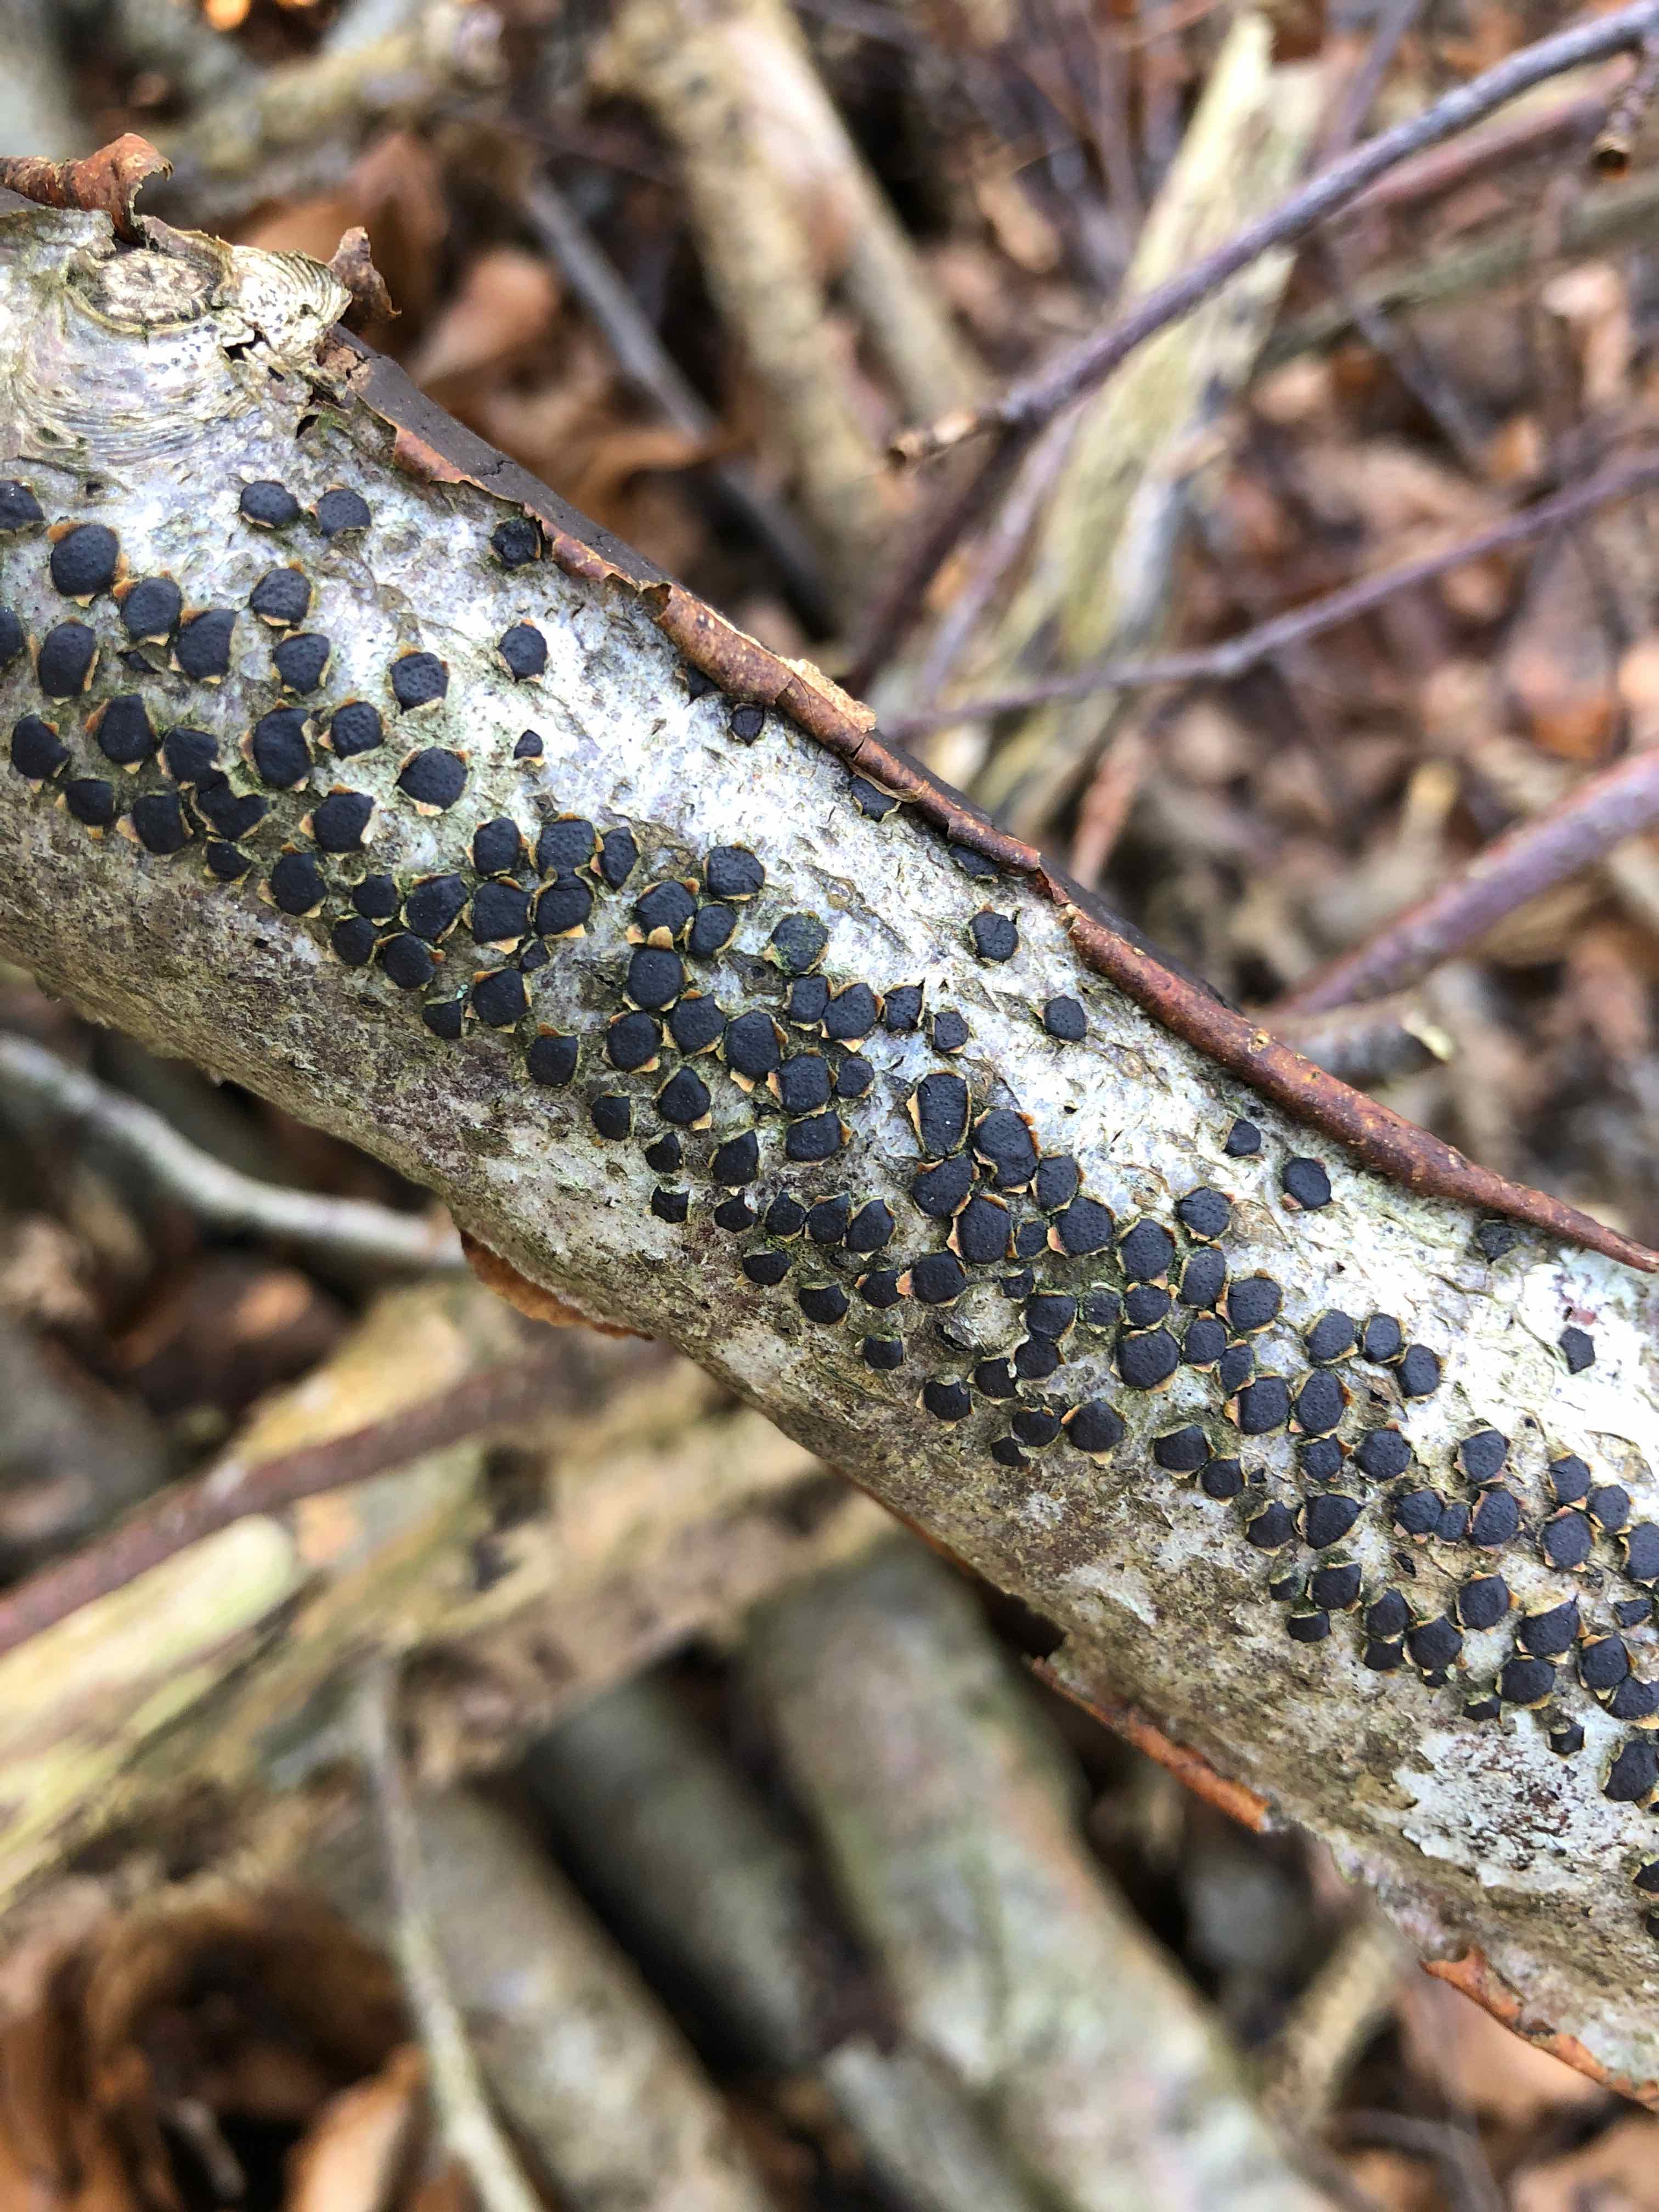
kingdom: Fungi
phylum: Ascomycota
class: Sordariomycetes
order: Xylariales
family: Diatrypaceae
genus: Diatrype
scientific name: Diatrype disciformis
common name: kant-kulskorpe
